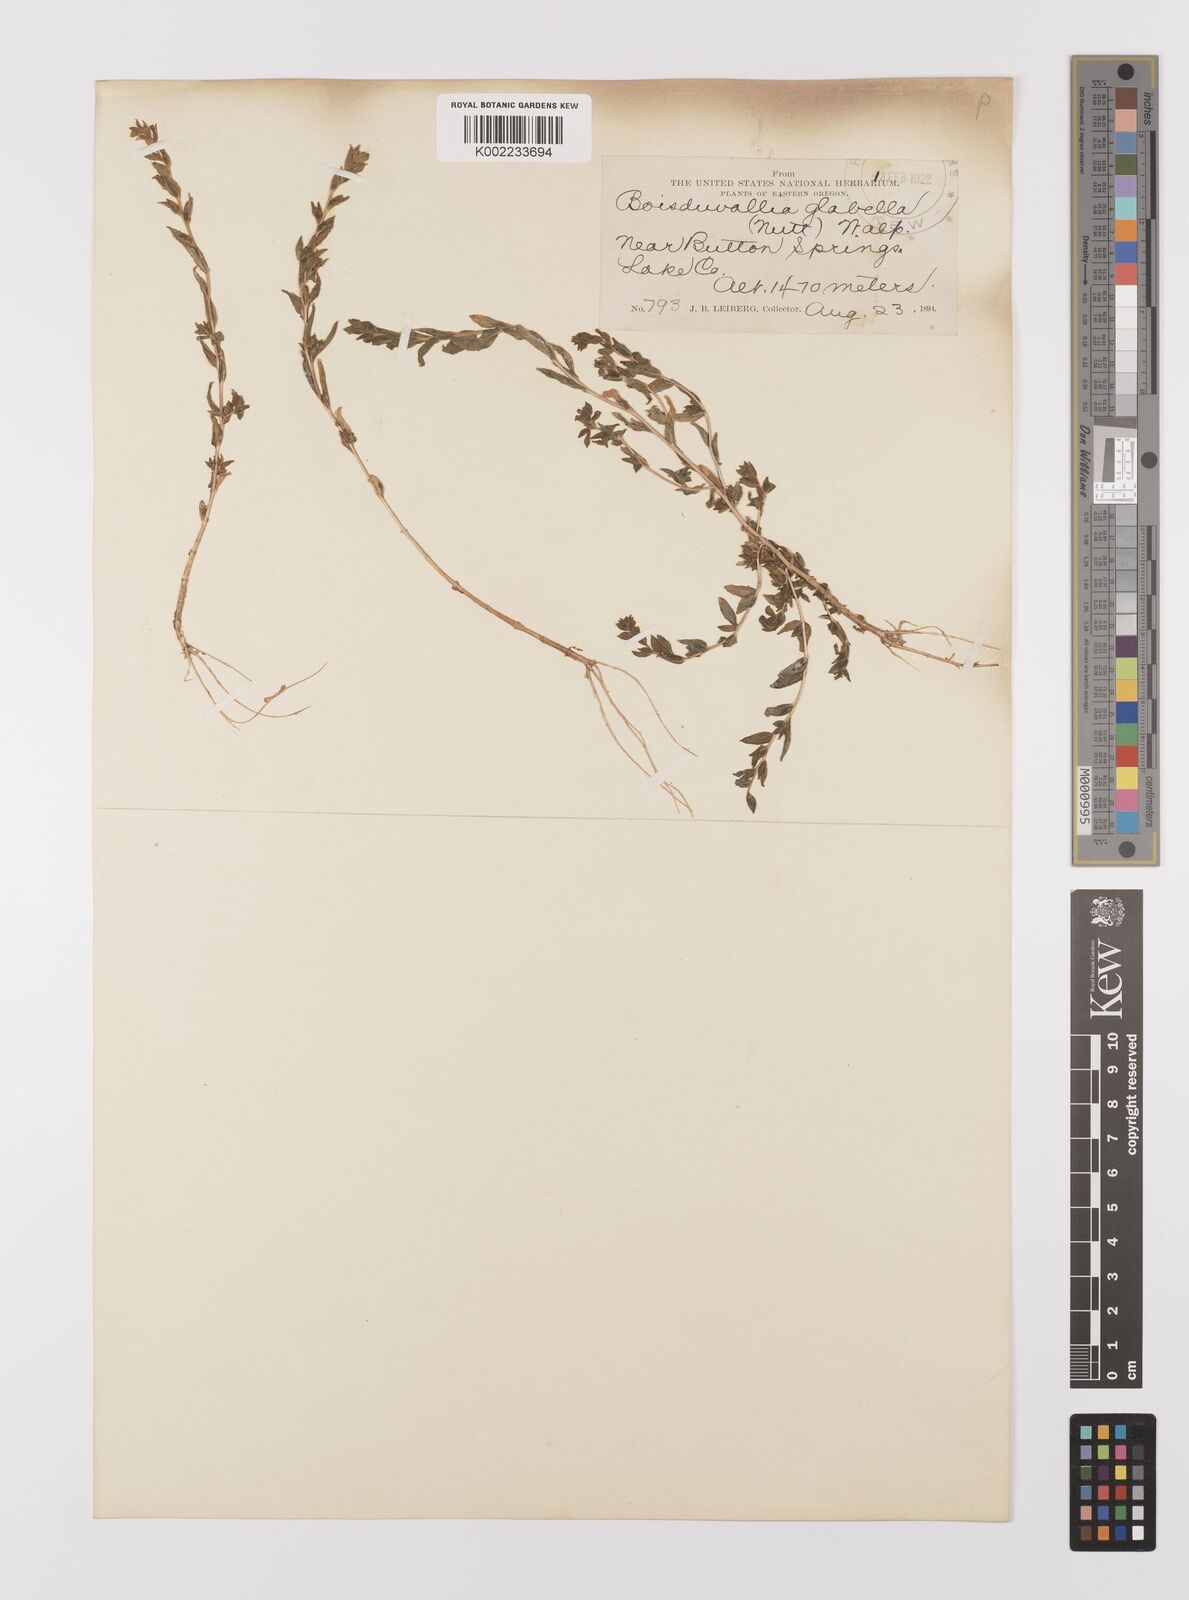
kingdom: Plantae
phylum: Tracheophyta
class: Magnoliopsida
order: Myrtales
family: Onagraceae
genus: Epilobium
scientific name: Epilobium campestre
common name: Smooth spike-primrose
